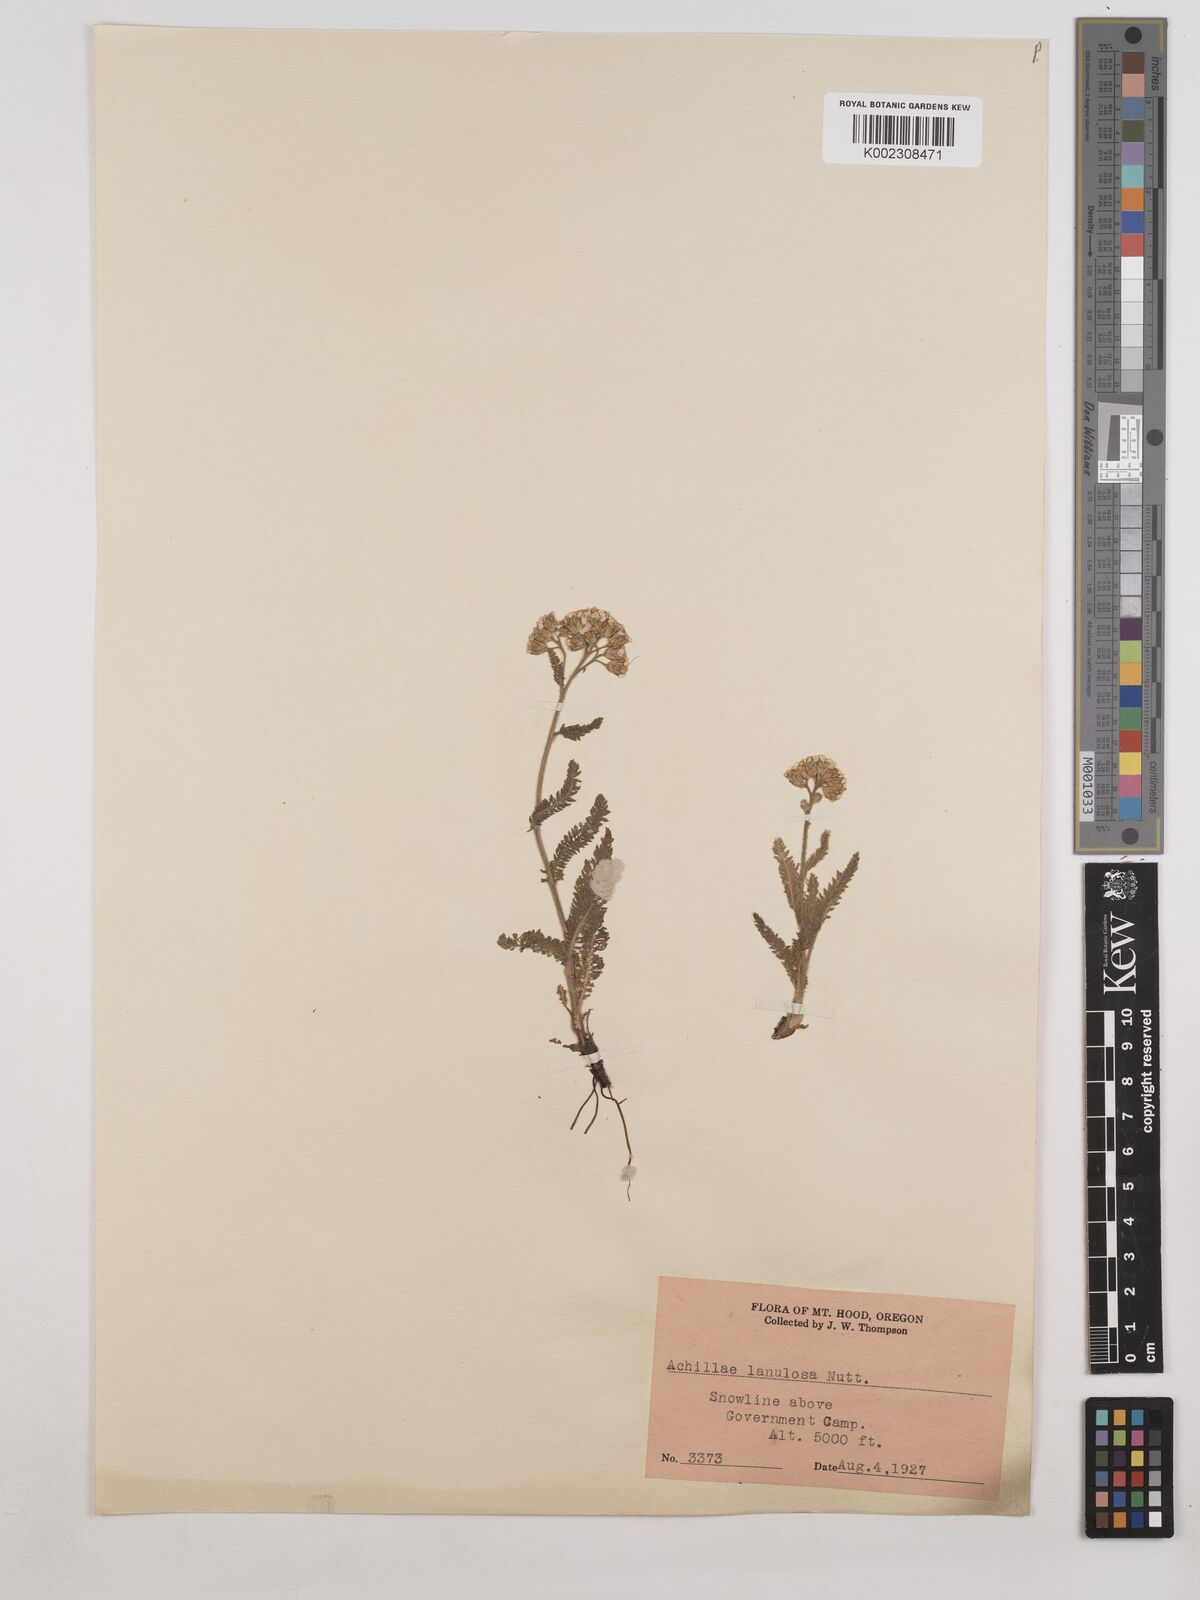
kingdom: Plantae
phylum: Tracheophyta
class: Magnoliopsida
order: Asterales
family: Asteraceae
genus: Achillea
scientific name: Achillea millefolium
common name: Yarrow
